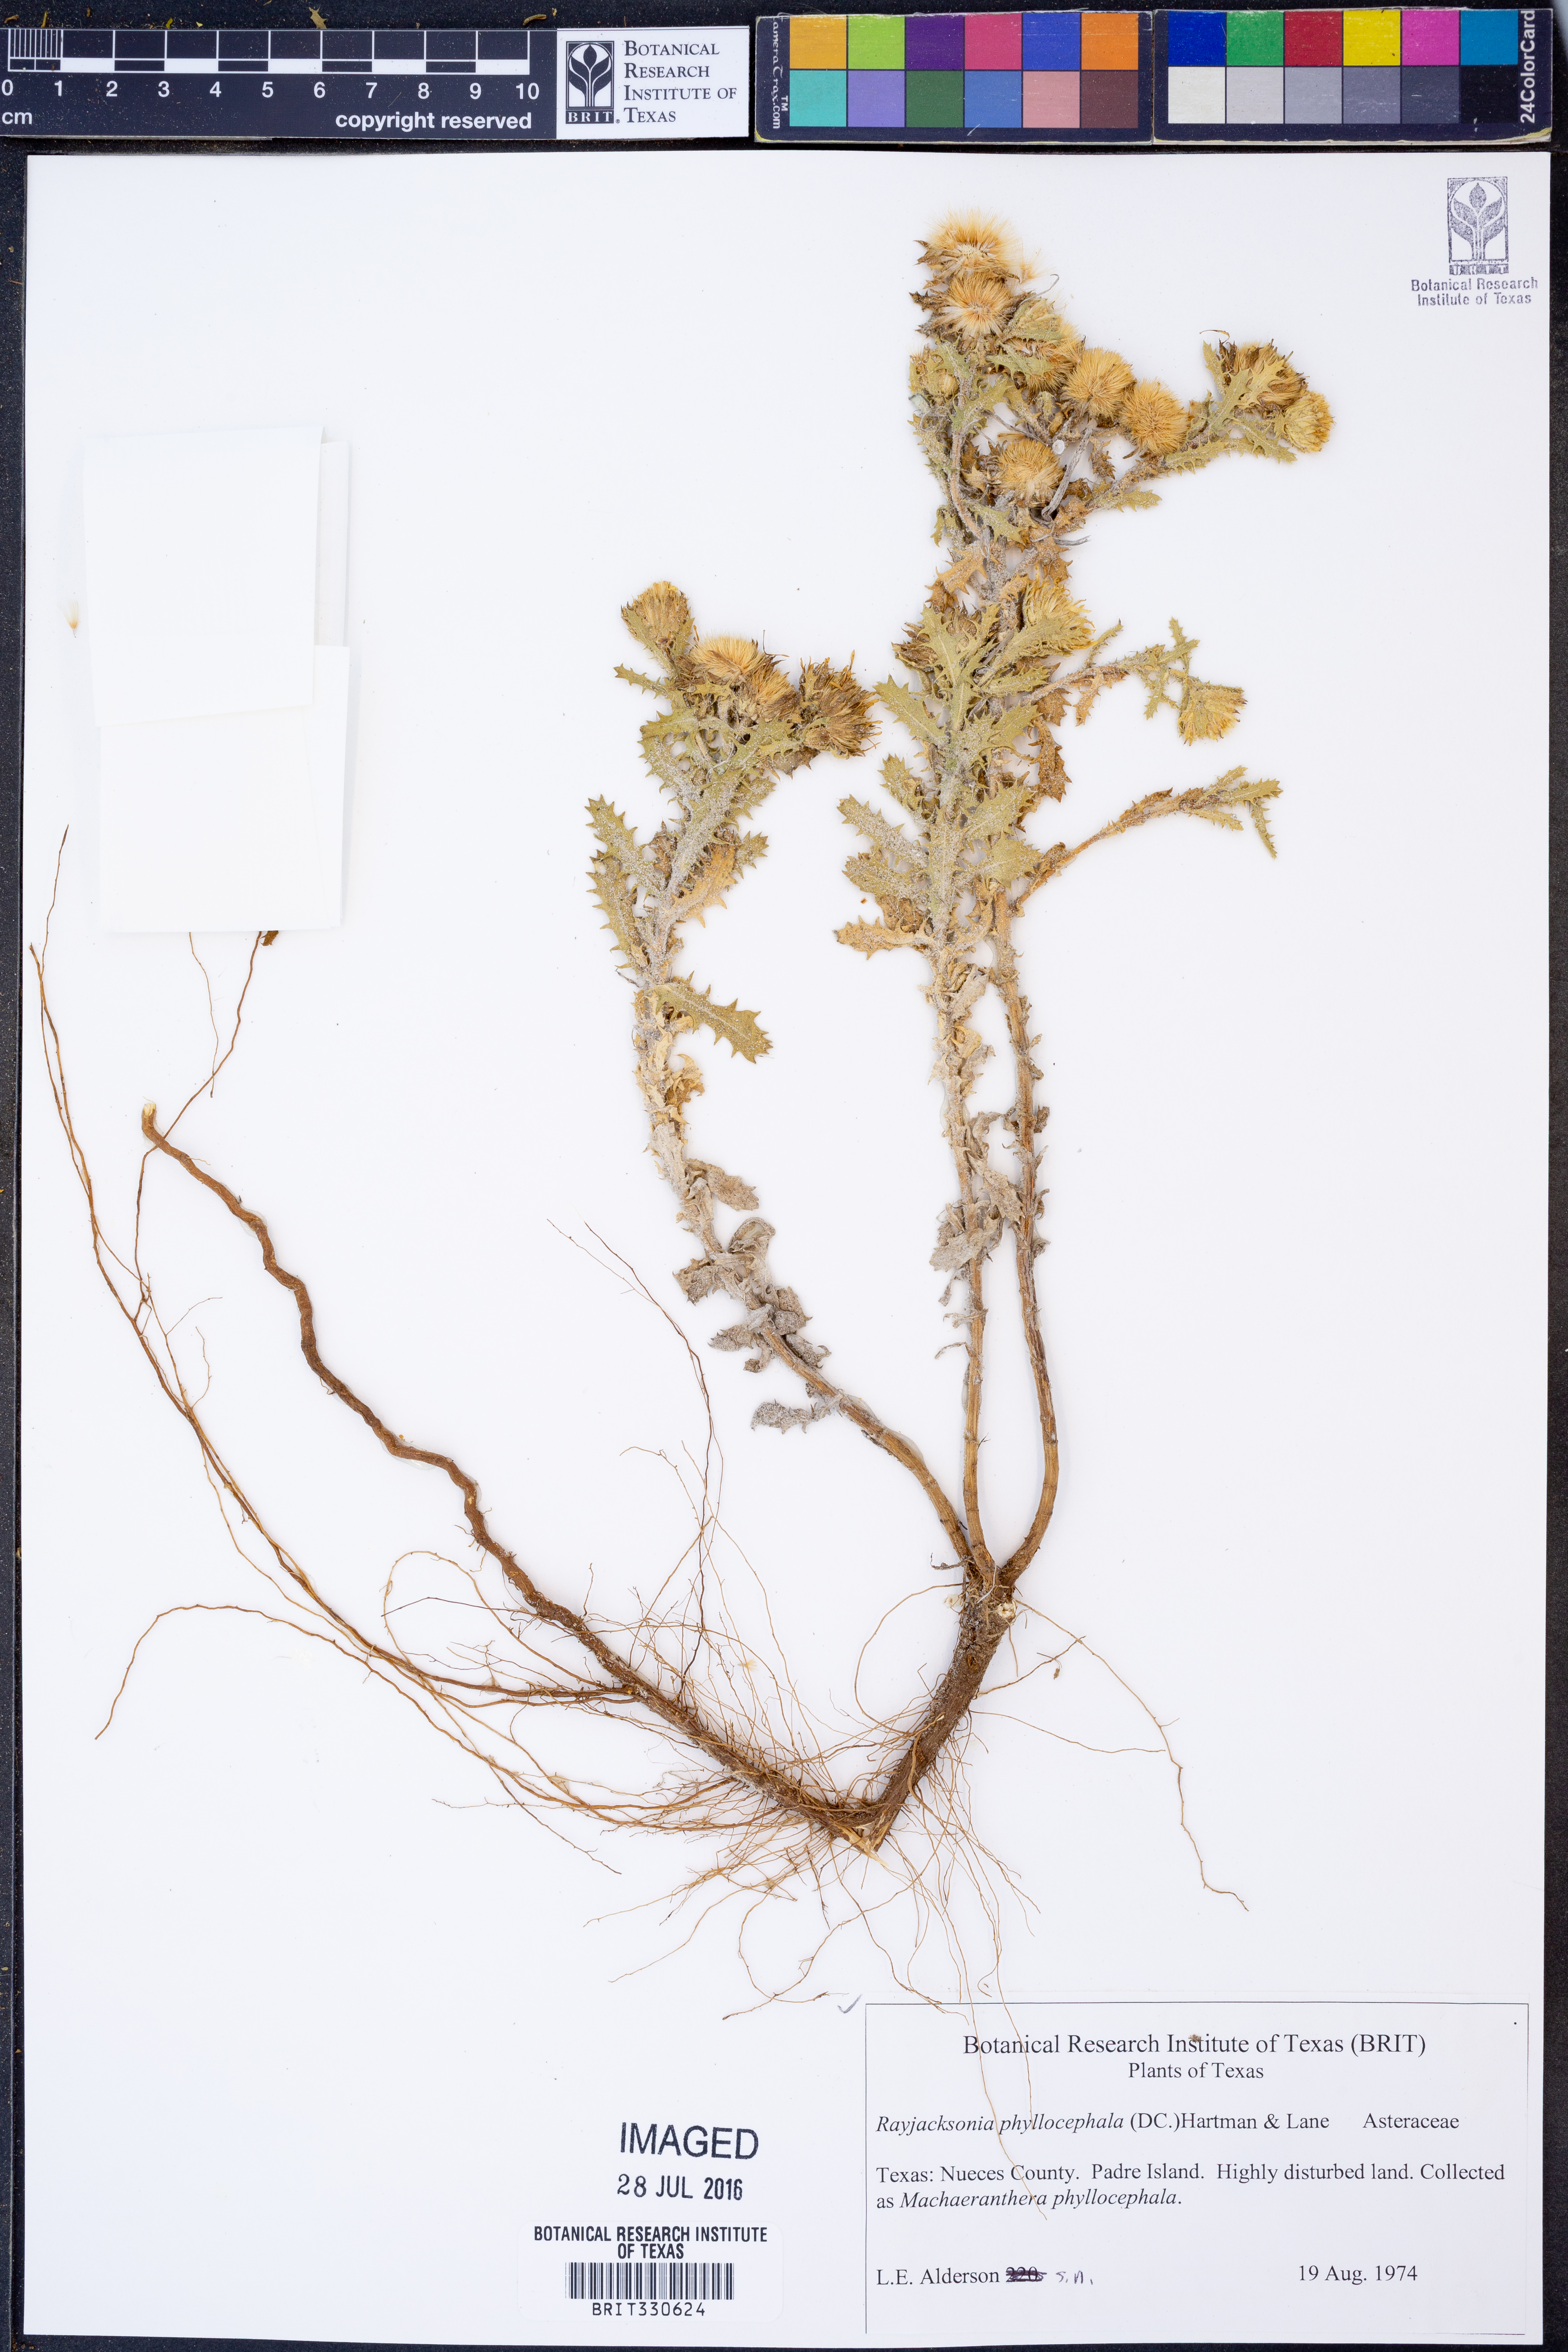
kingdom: Plantae
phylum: Tracheophyta
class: Magnoliopsida
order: Asterales
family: Asteraceae
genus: Rayjacksonia
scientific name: Rayjacksonia phyllocephala
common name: Gulf coast camphor daisy
